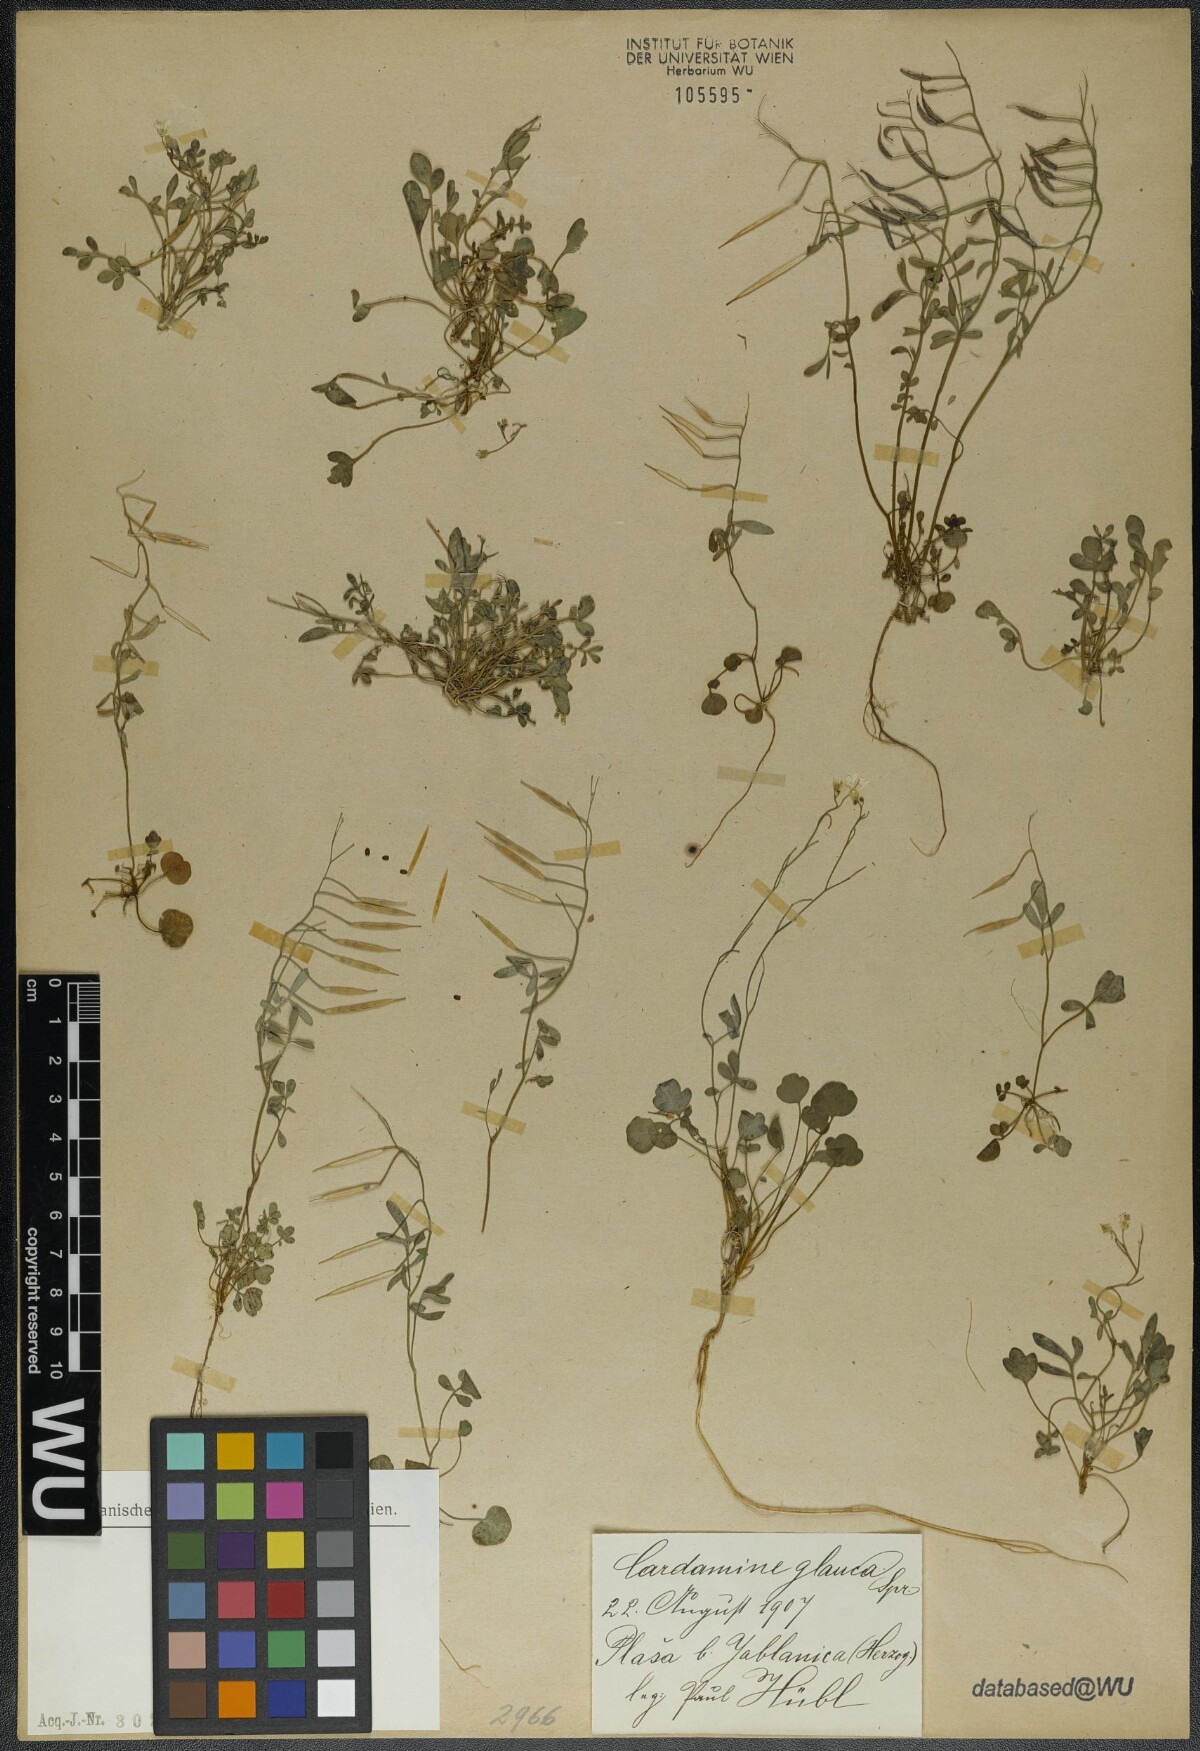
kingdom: Plantae
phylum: Tracheophyta
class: Magnoliopsida
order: Brassicales
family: Brassicaceae
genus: Cardamine
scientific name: Cardamine glauca
